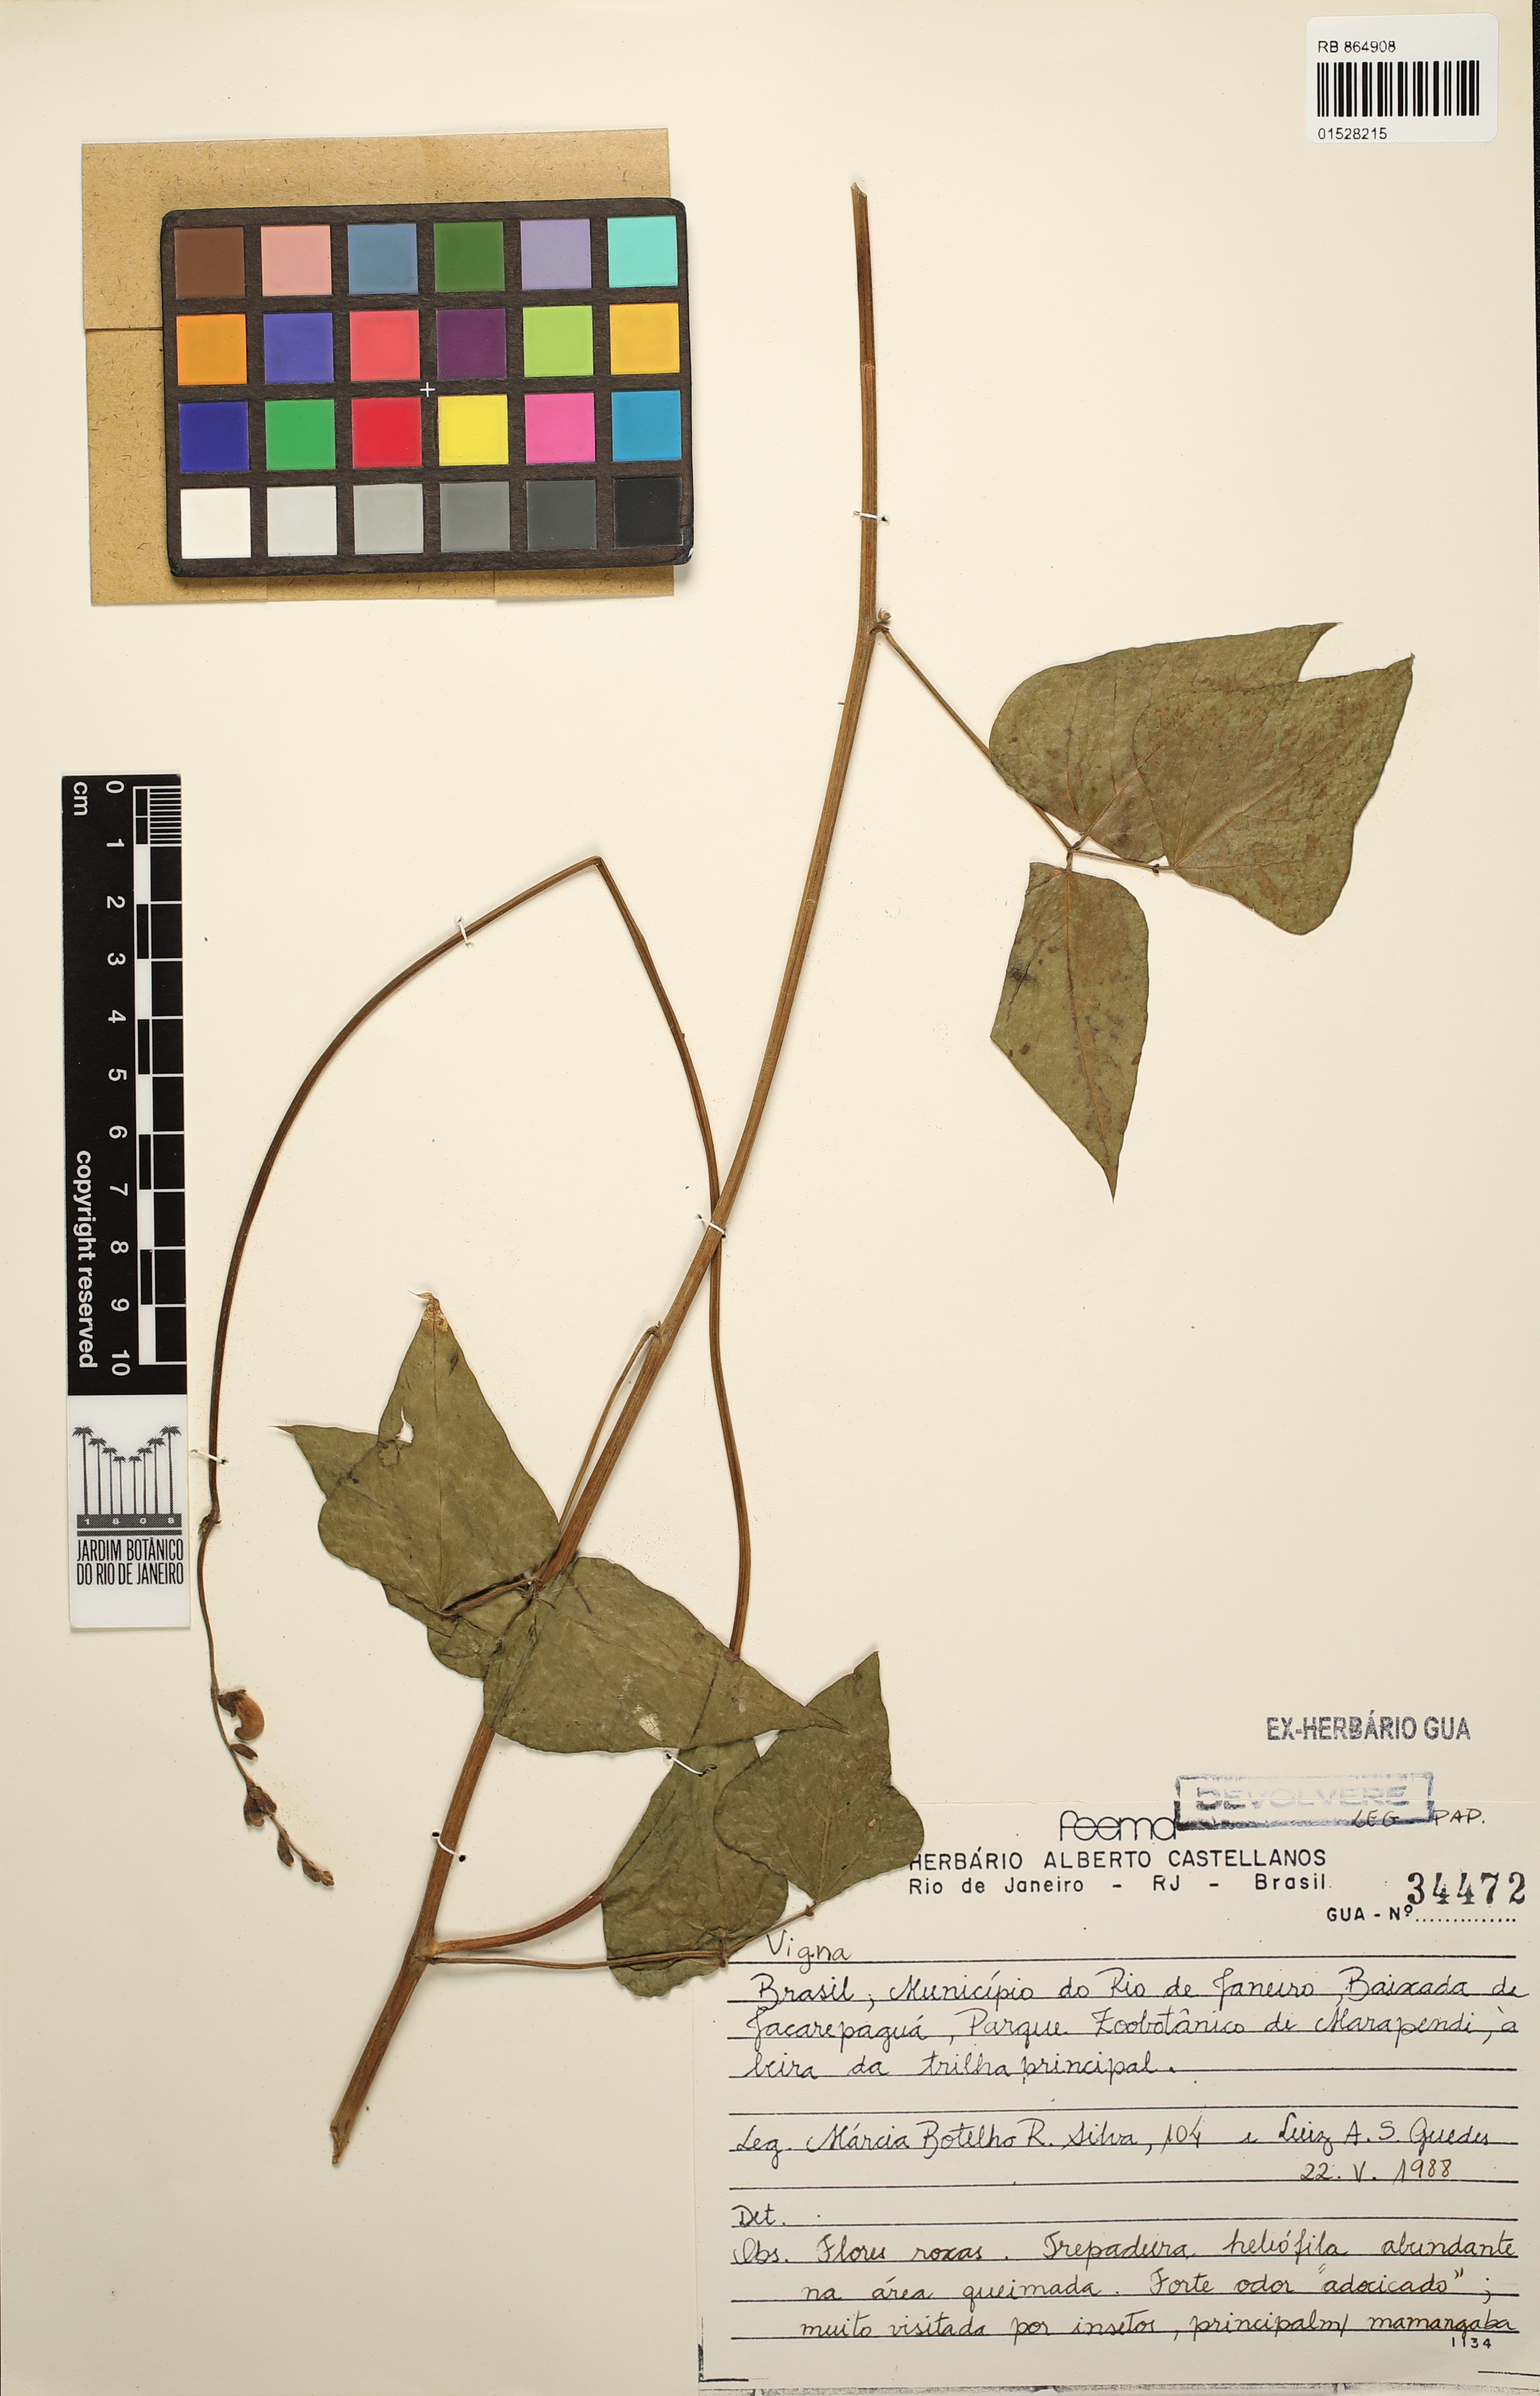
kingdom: Plantae
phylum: Tracheophyta
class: Magnoliopsida
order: Fabales
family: Fabaceae
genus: Vigna
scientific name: Vigna
